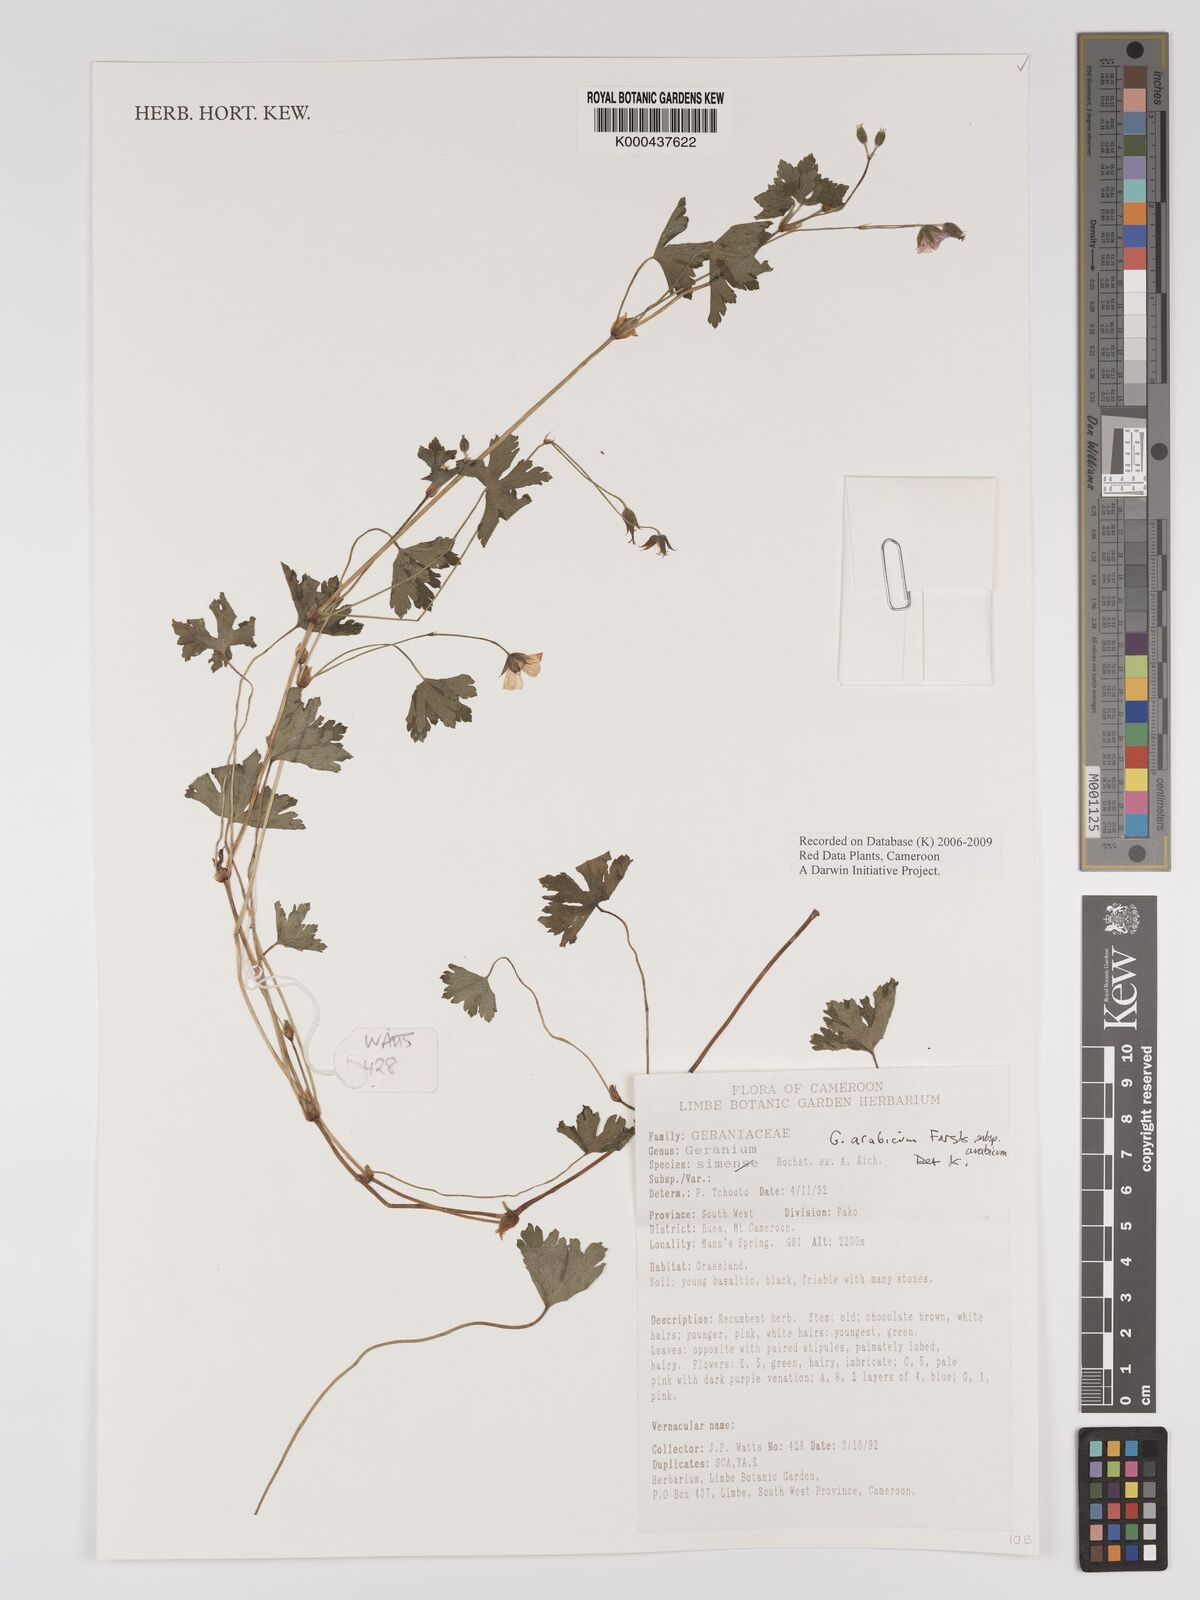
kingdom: Plantae
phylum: Tracheophyta
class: Magnoliopsida
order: Geraniales
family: Geraniaceae
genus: Geranium
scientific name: Geranium arabicum
